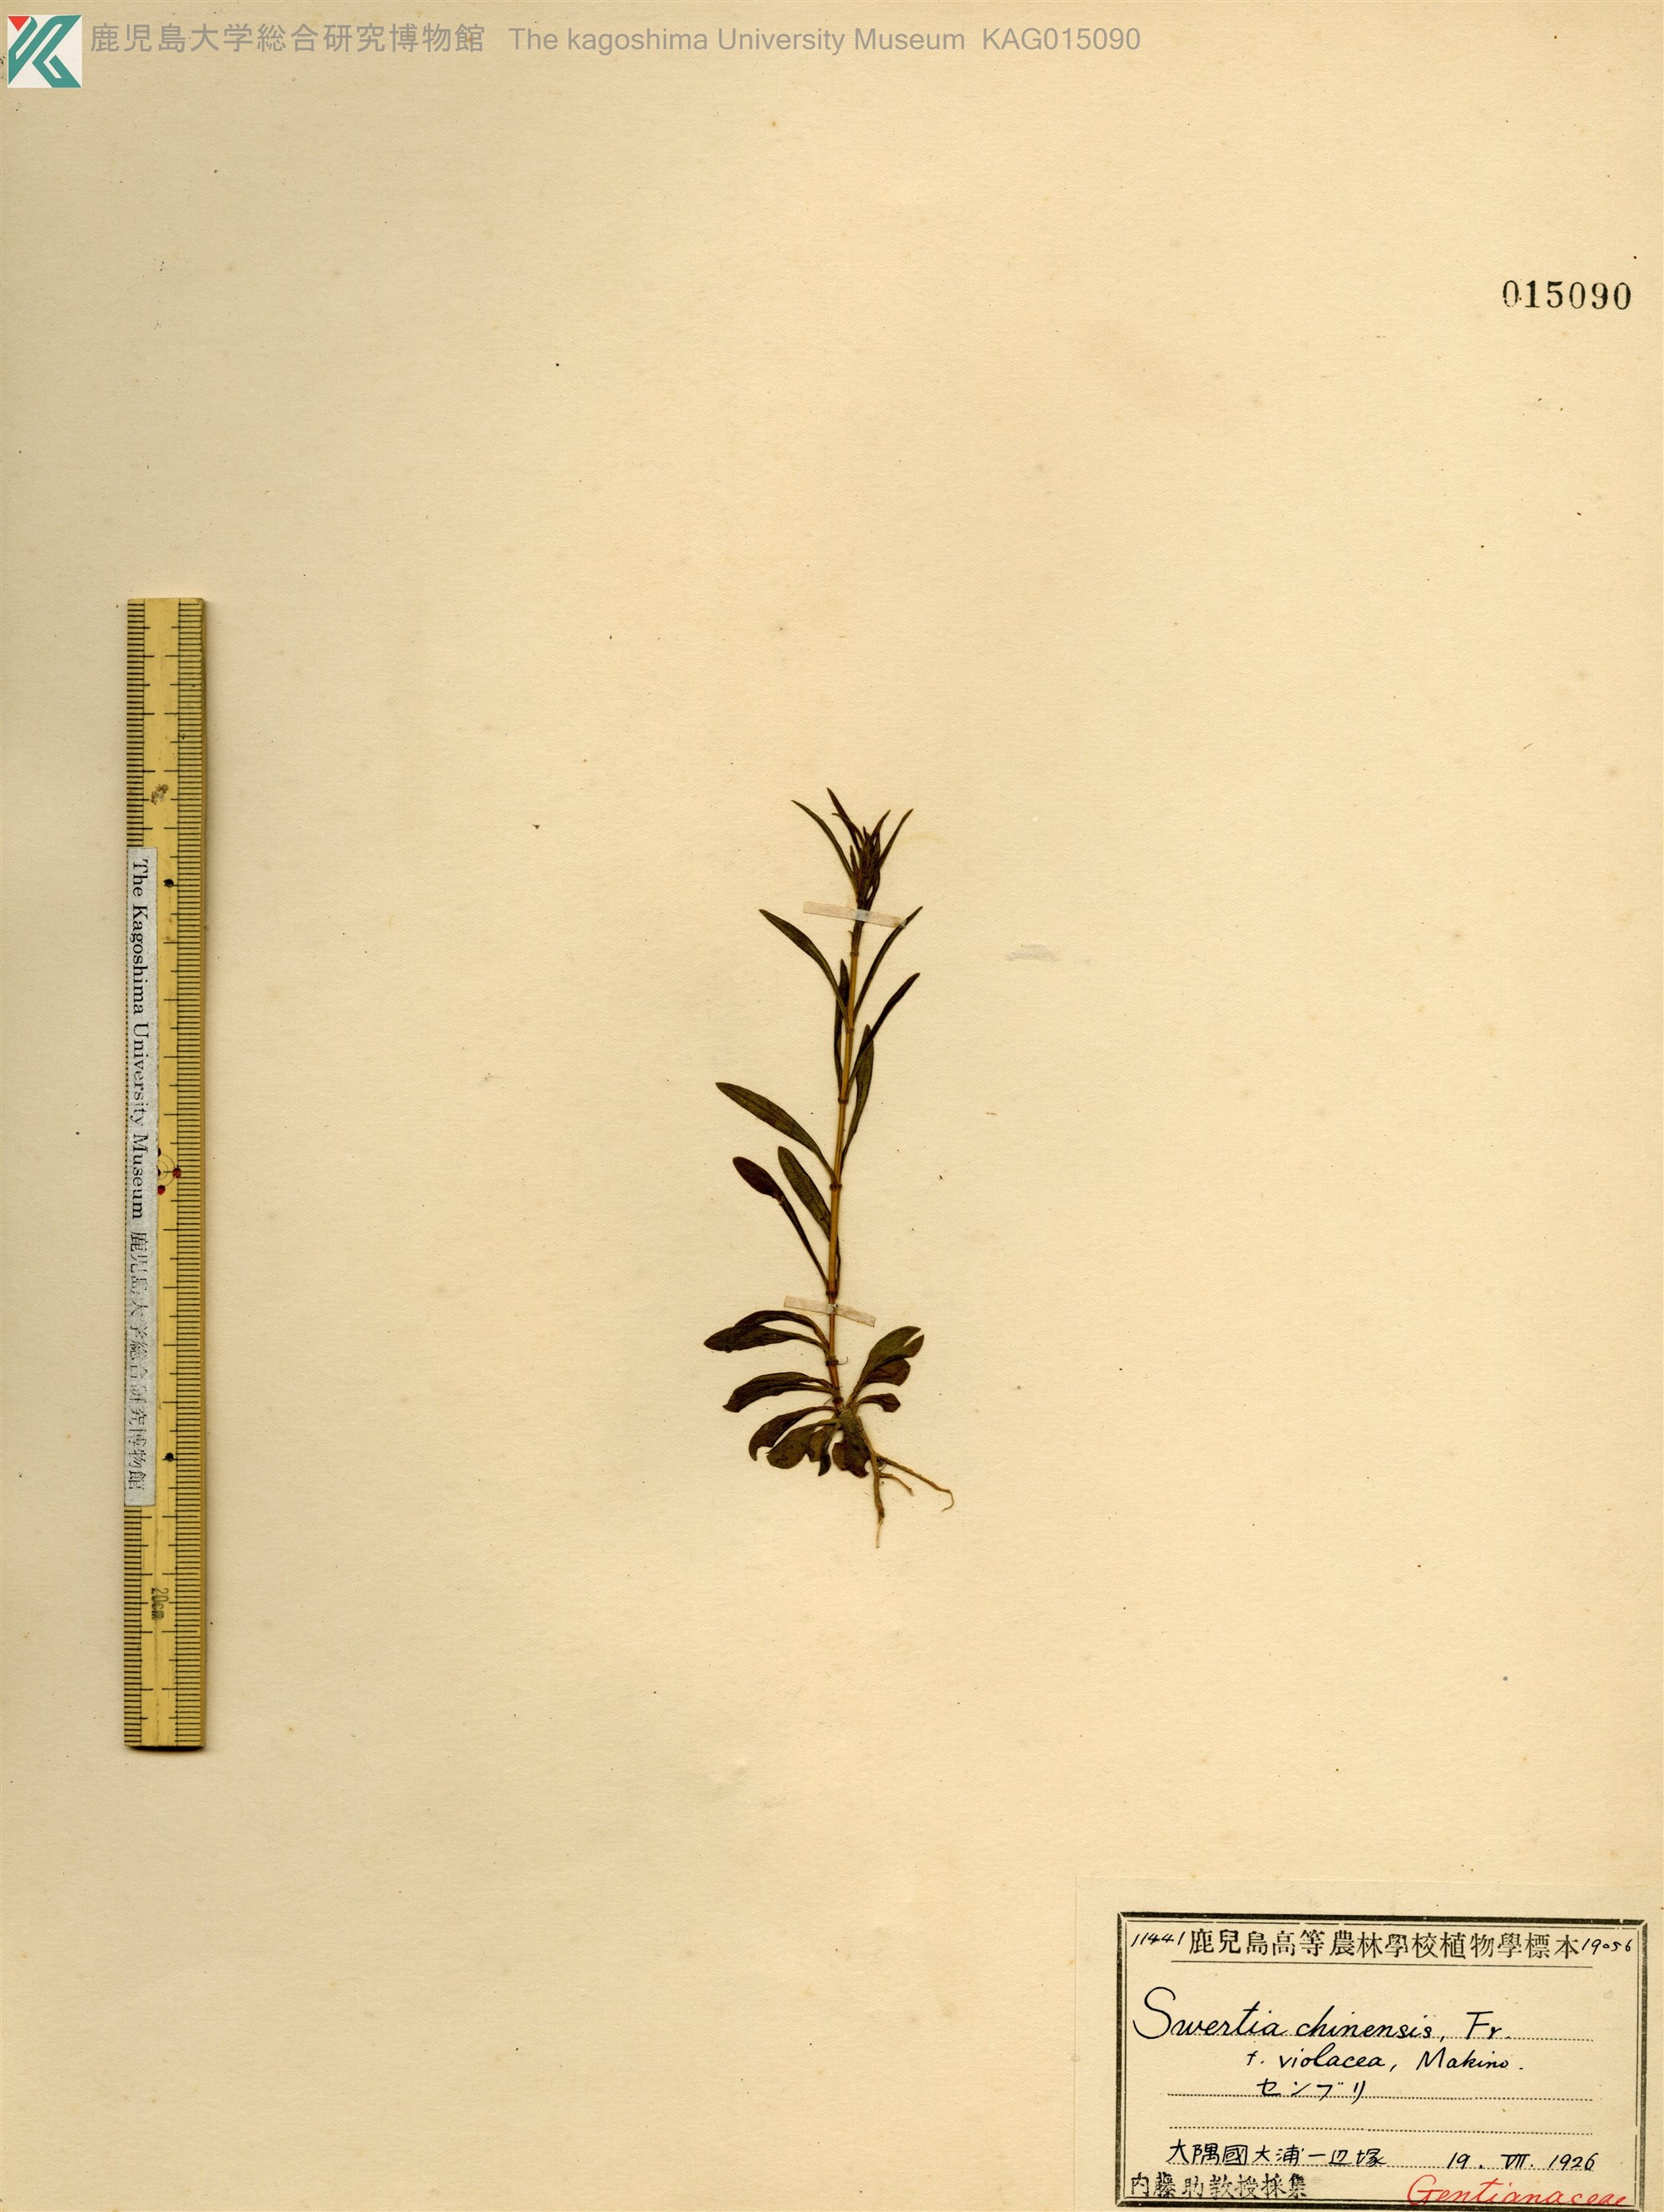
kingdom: Plantae
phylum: Tracheophyta
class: Magnoliopsida
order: Gentianales
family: Gentianaceae
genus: Swertia
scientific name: Swertia japonica
